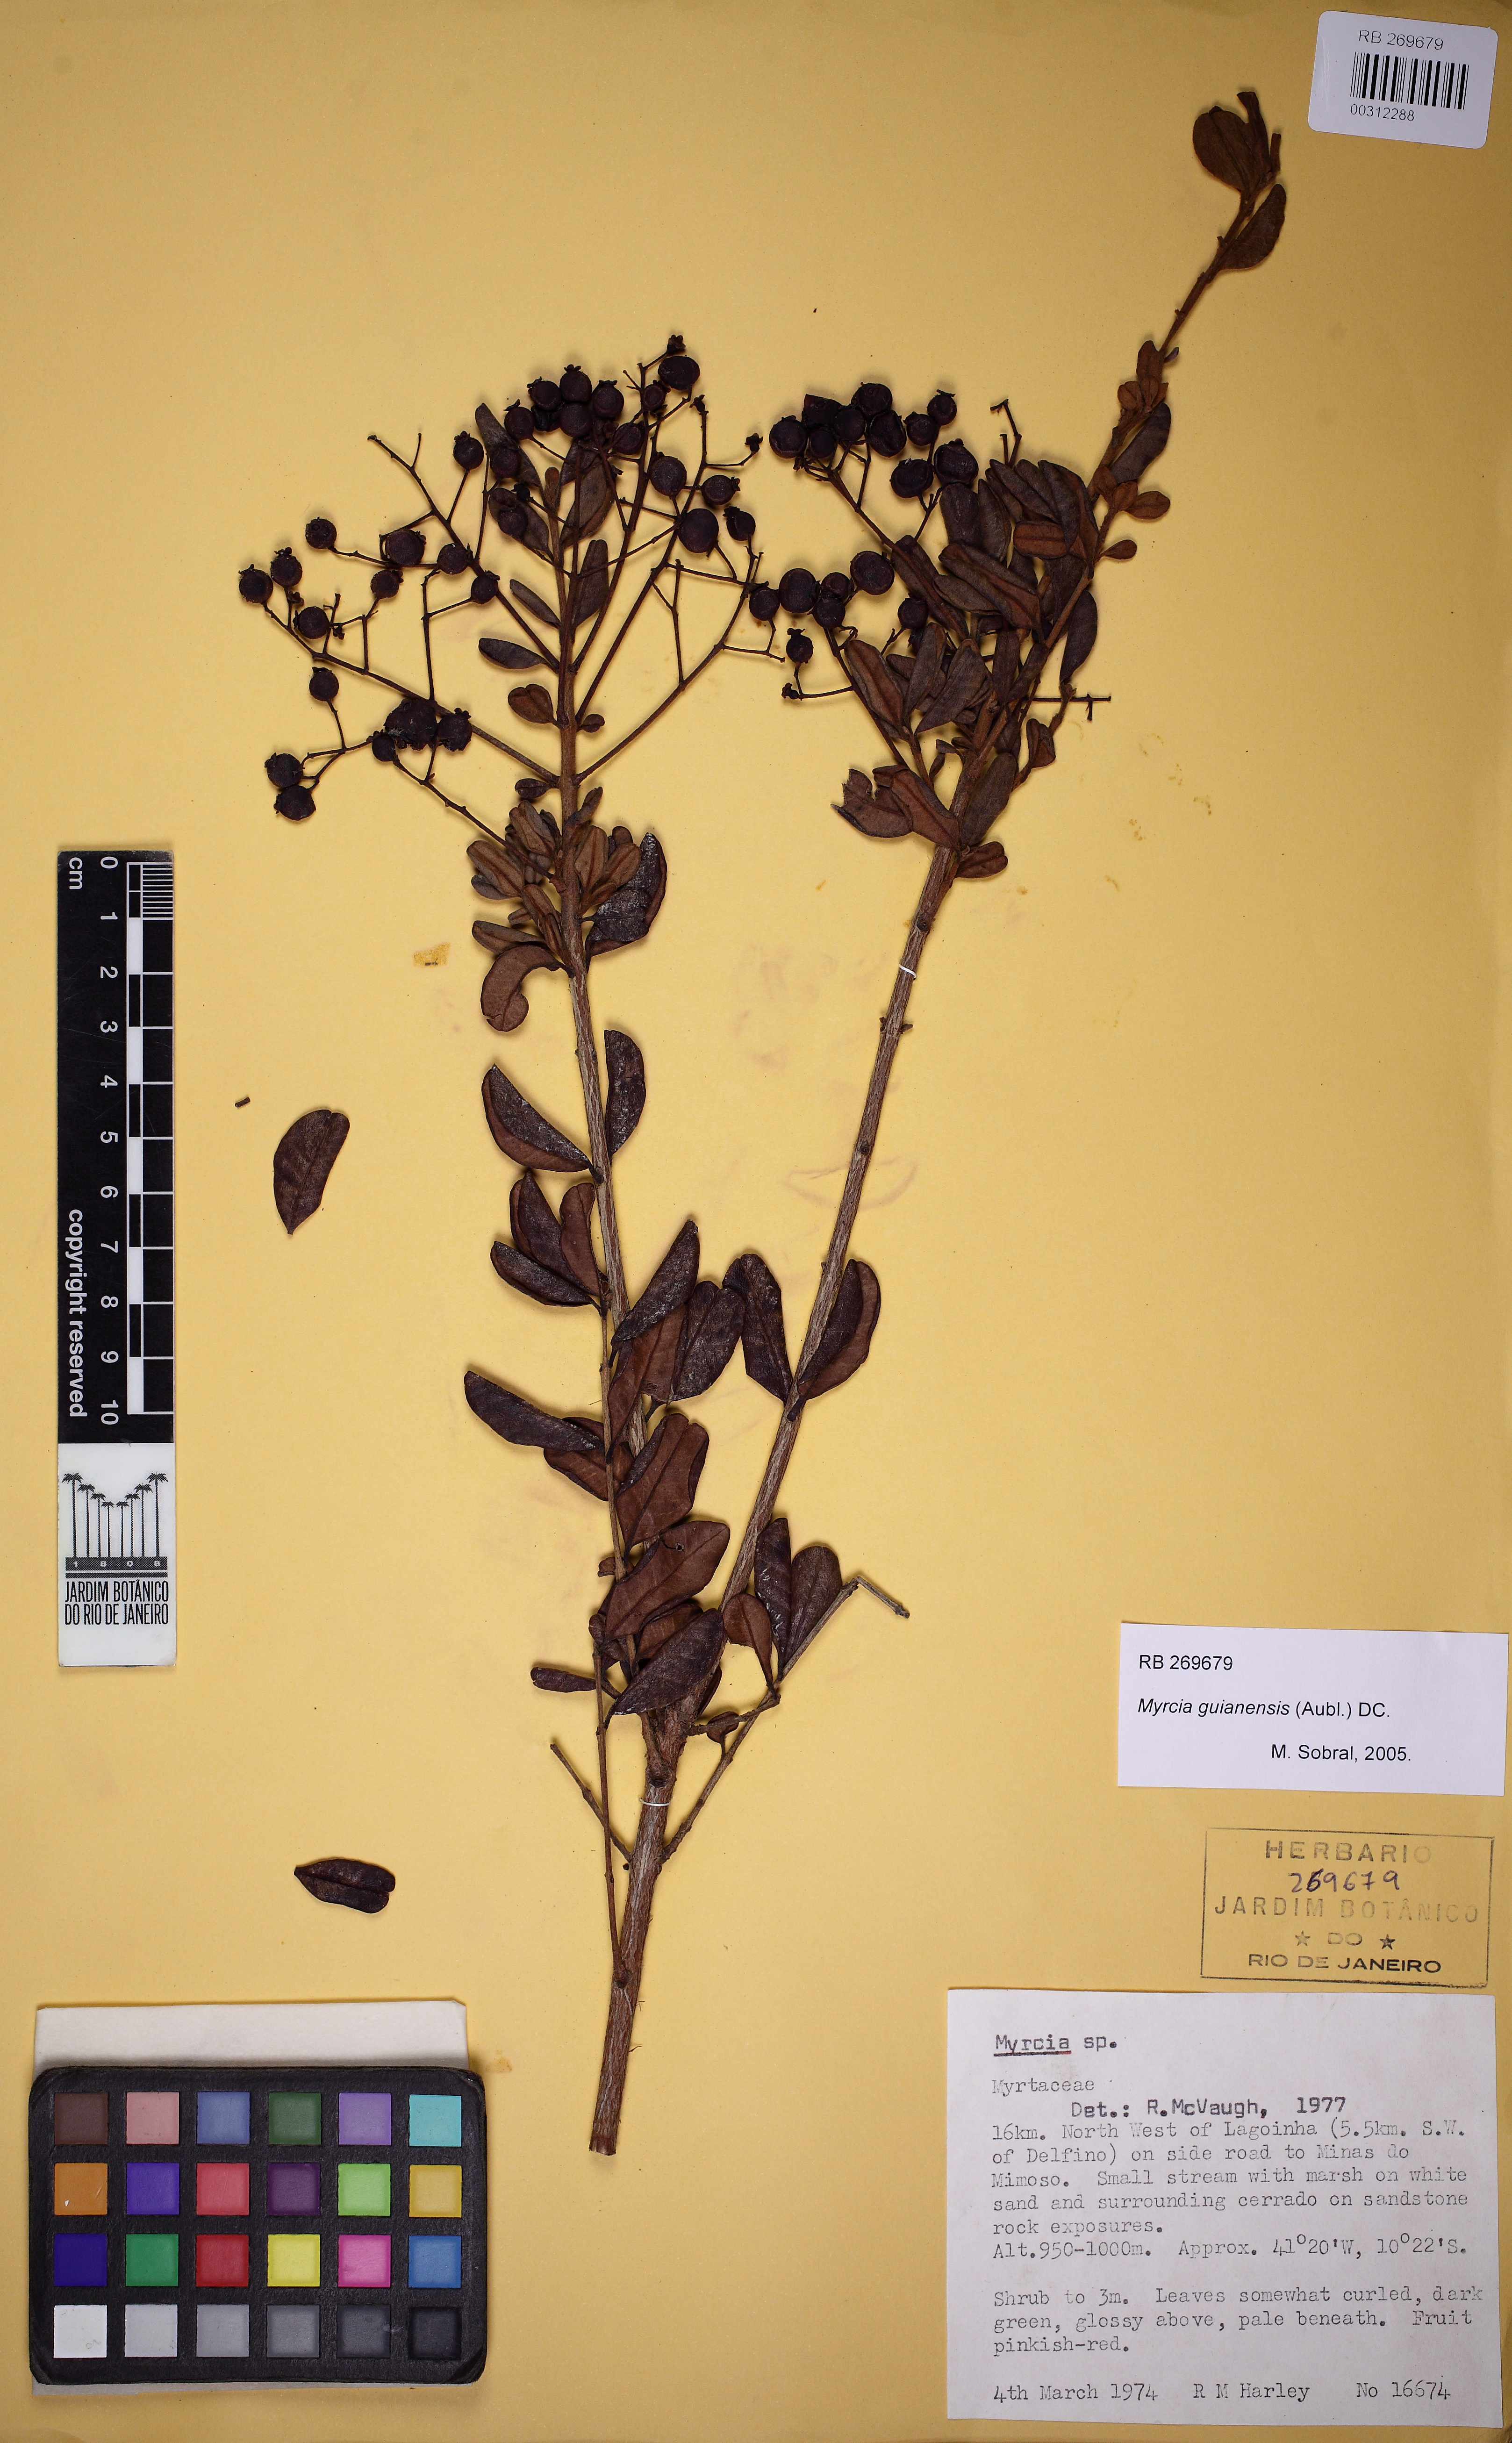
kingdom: Plantae
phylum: Tracheophyta
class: Magnoliopsida
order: Myrtales
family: Myrtaceae
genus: Myrcia
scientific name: Myrcia guianensis
